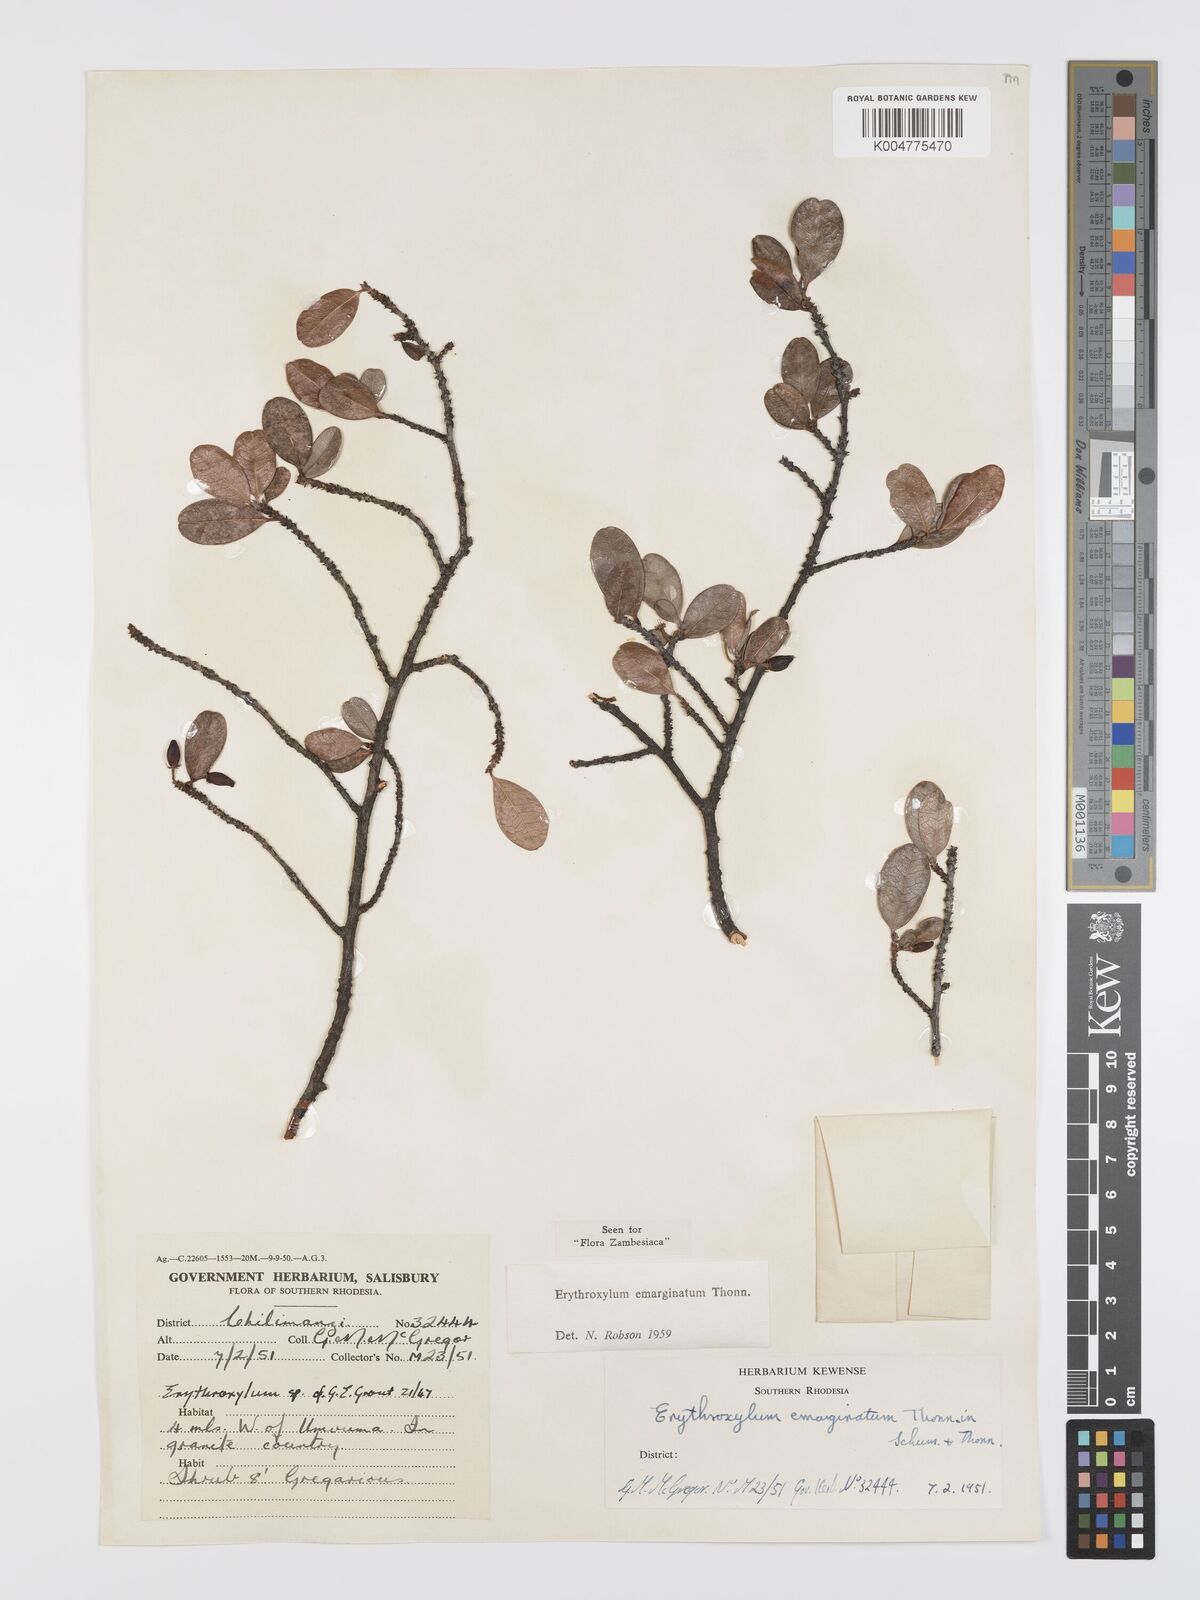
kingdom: Plantae
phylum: Tracheophyta
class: Magnoliopsida
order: Malpighiales
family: Erythroxylaceae
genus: Erythroxylum
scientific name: Erythroxylum emarginatum
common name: African coca-tree
